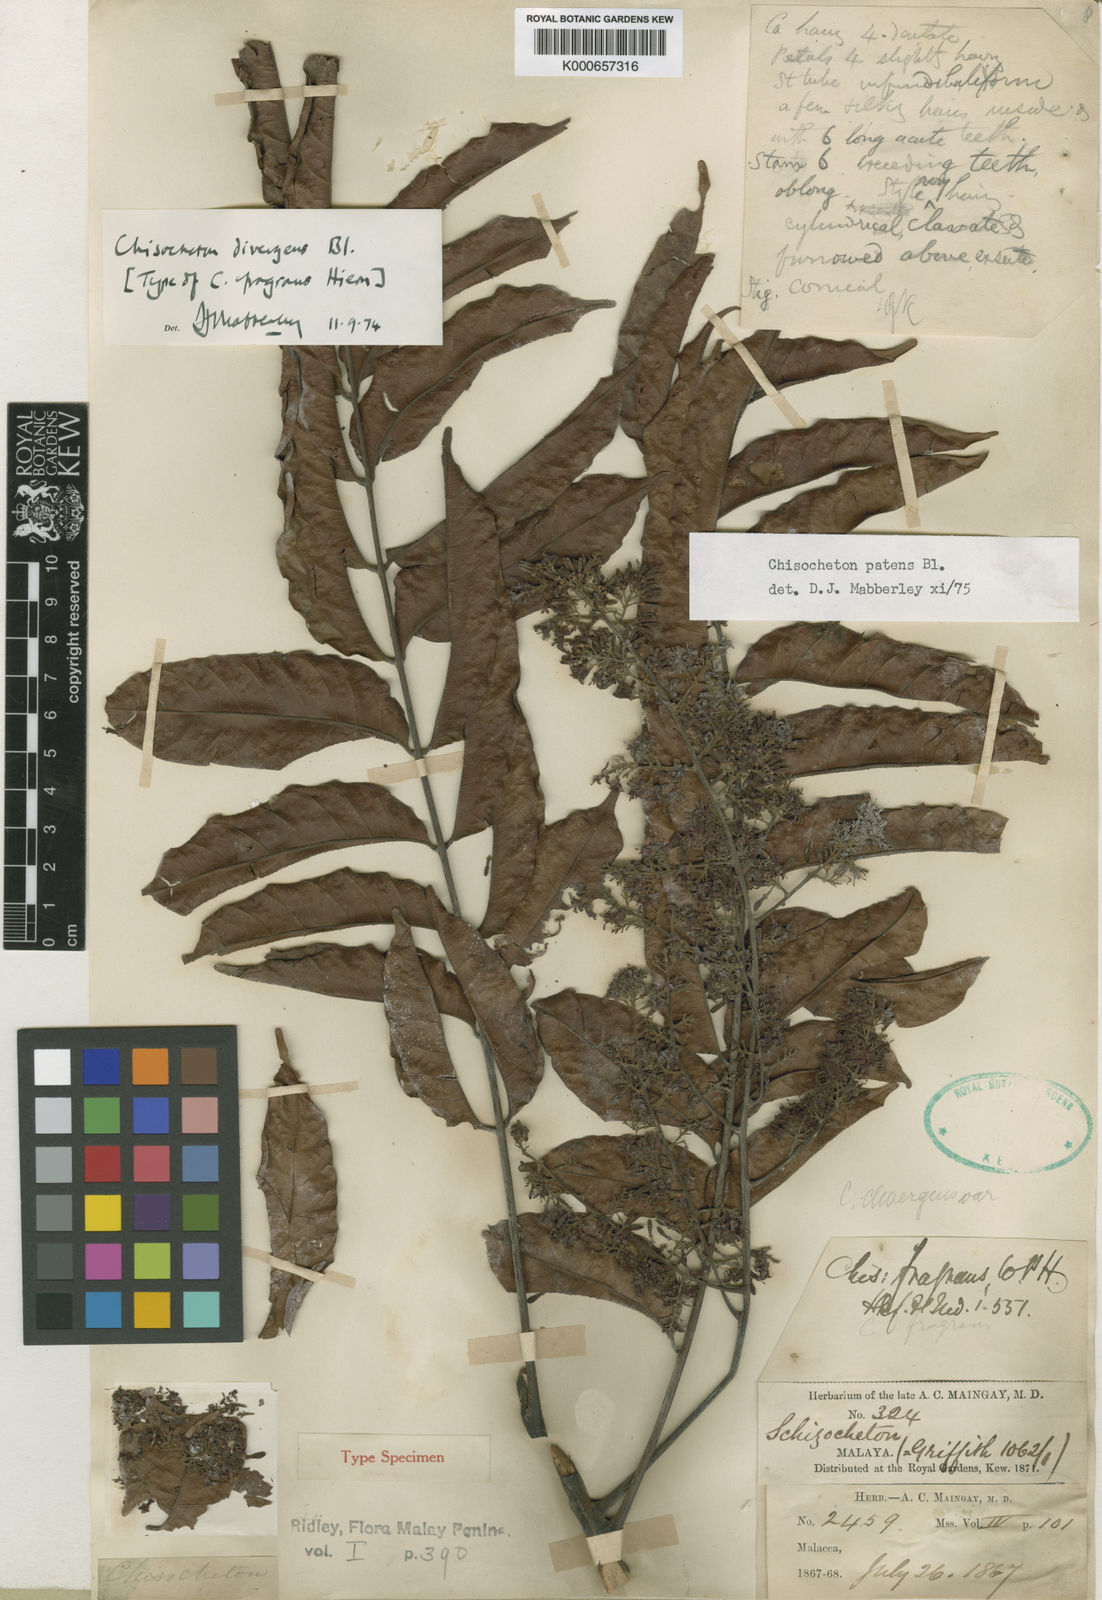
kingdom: Plantae
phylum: Tracheophyta
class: Magnoliopsida
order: Sapindales
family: Meliaceae
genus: Chisocheton
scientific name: Chisocheton patens
